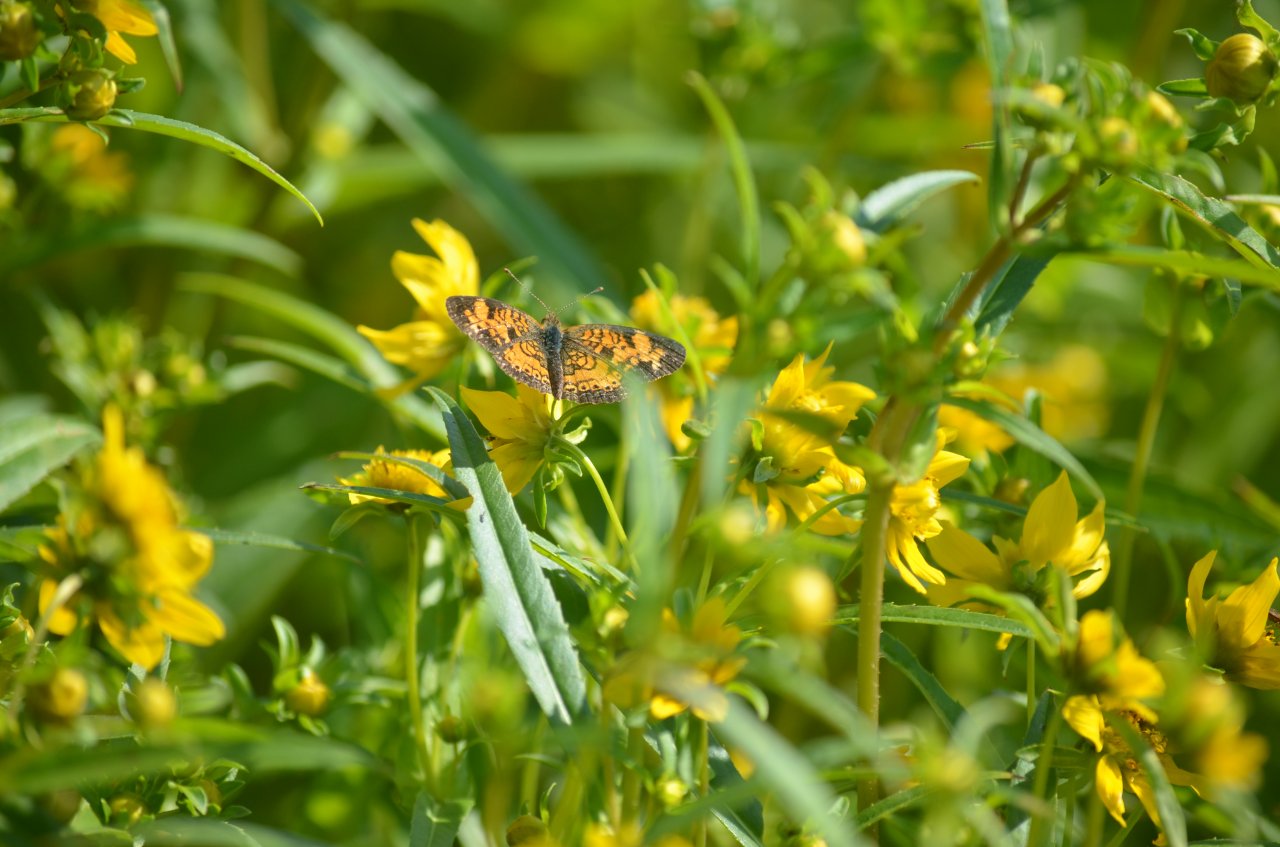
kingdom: Animalia
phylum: Arthropoda
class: Insecta
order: Lepidoptera
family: Nymphalidae
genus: Phyciodes
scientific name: Phyciodes tharos
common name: Northern Crescent
